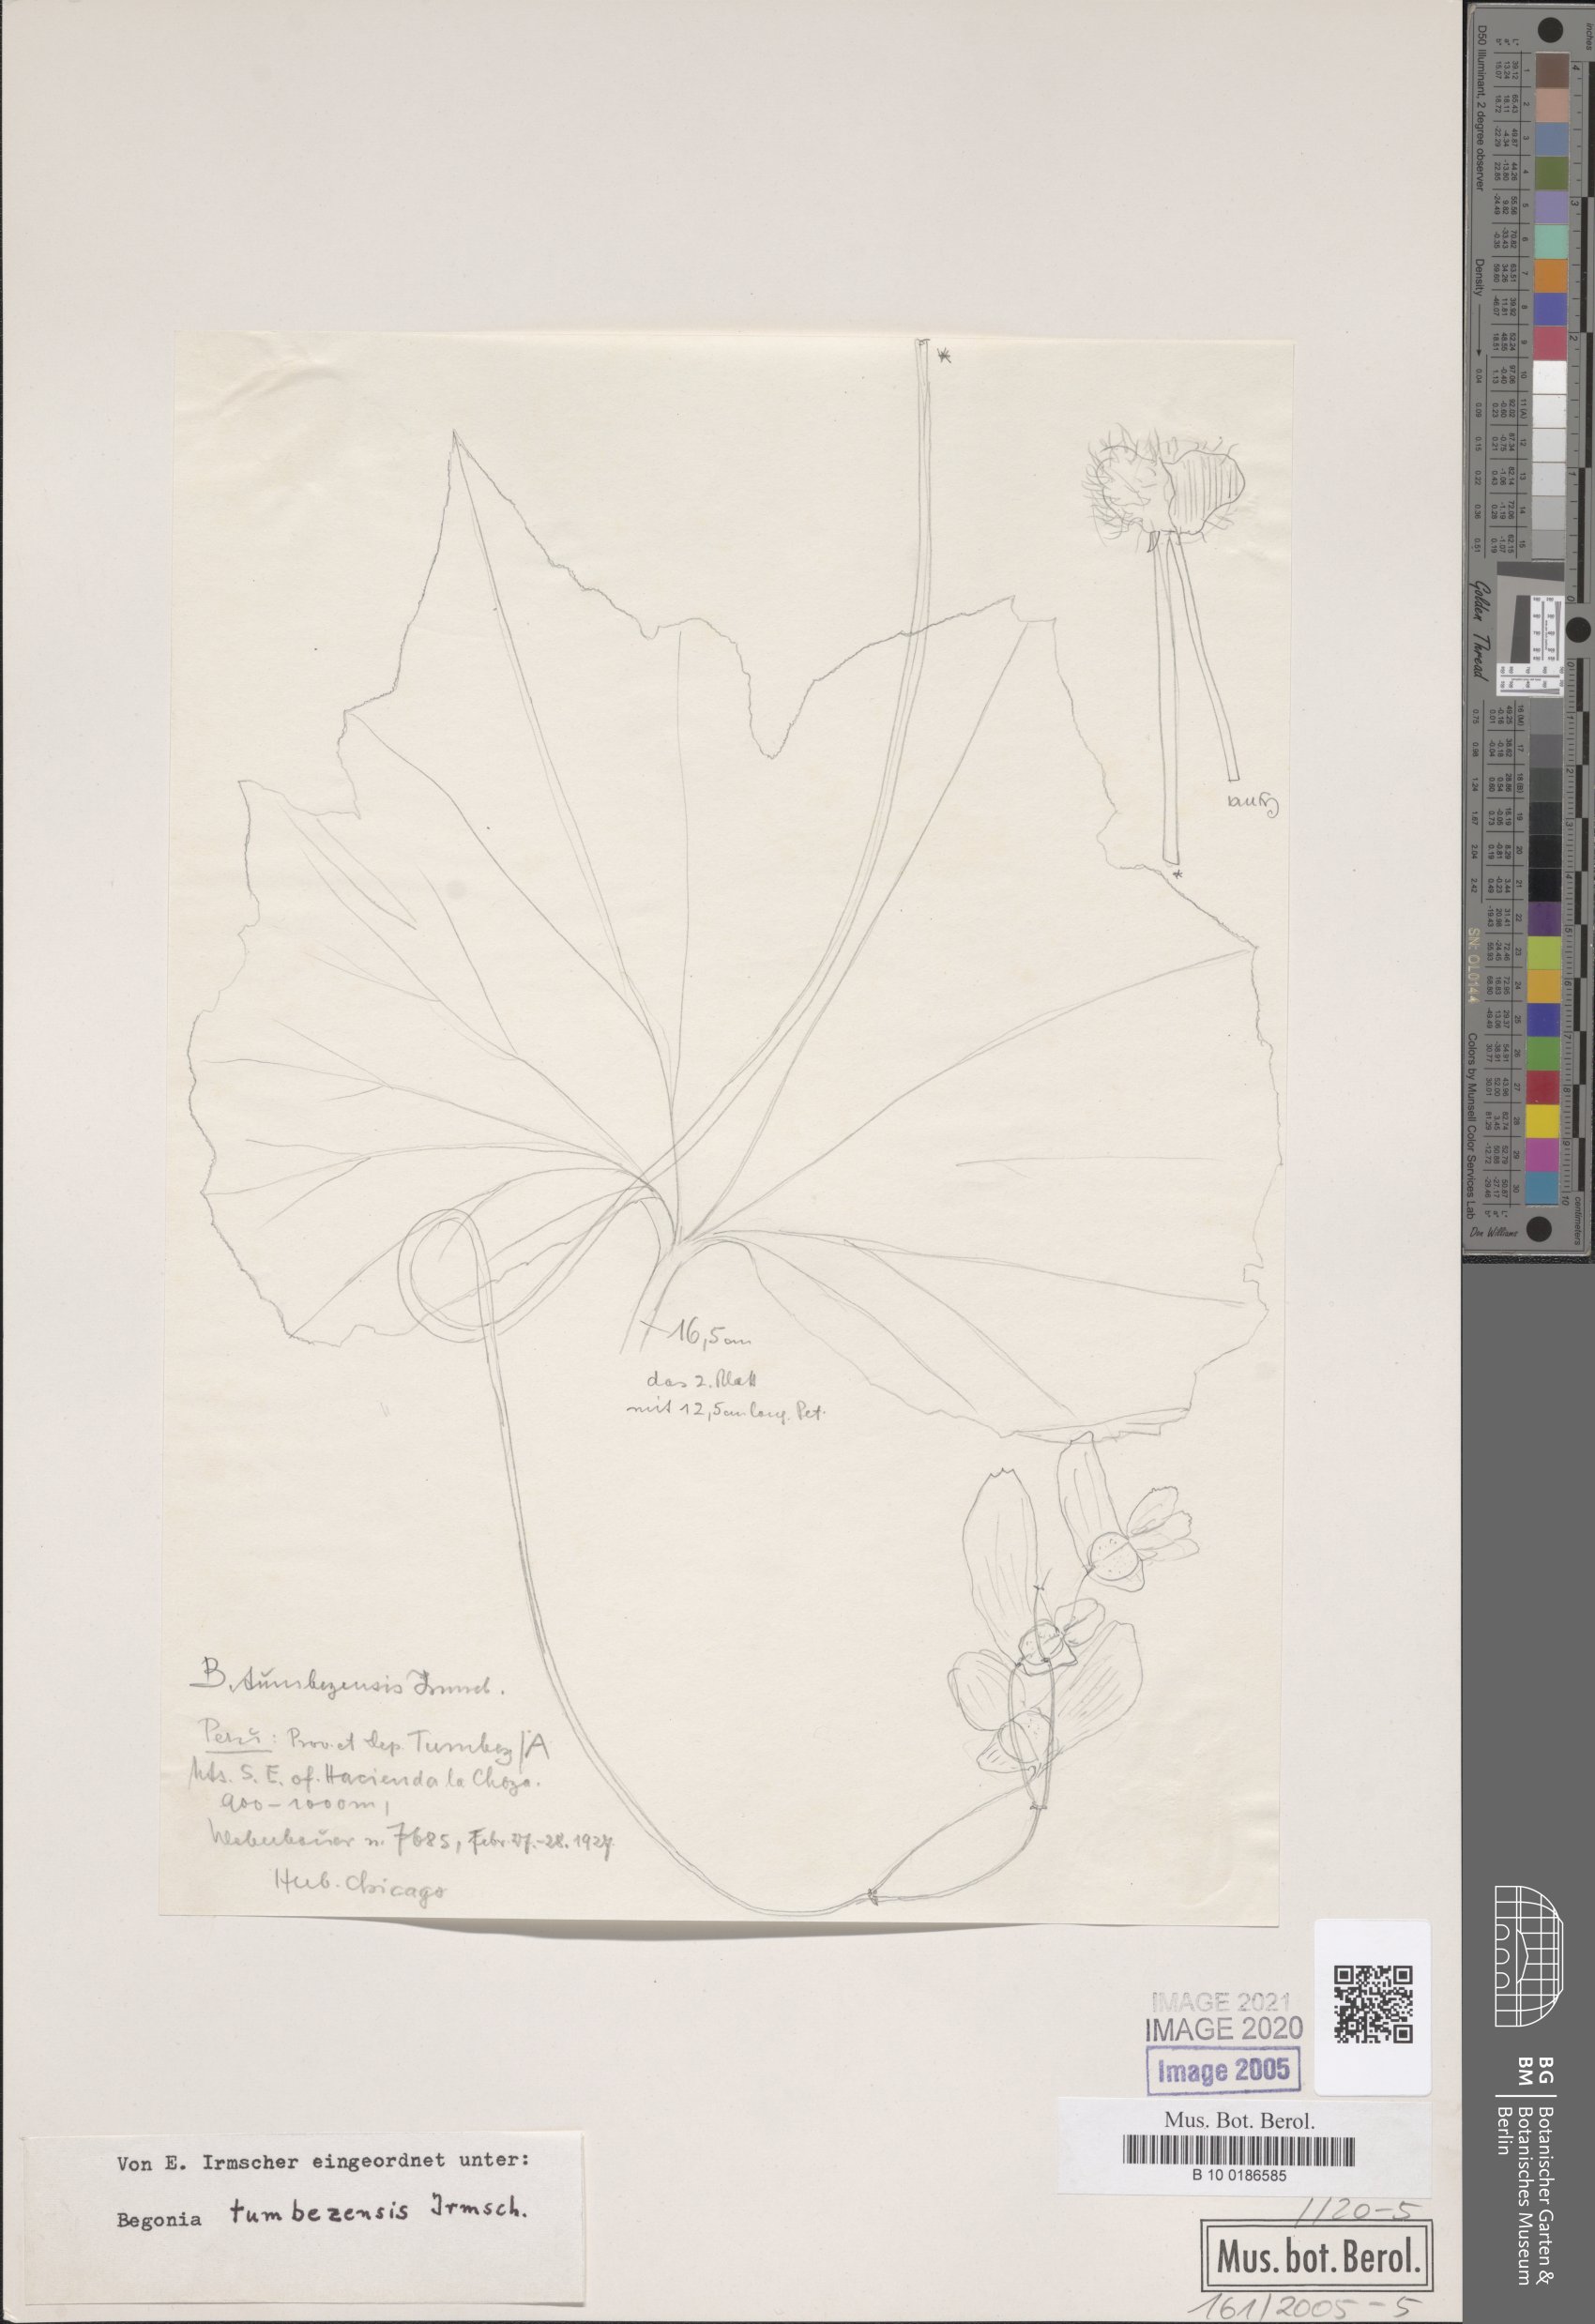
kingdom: Plantae
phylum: Tracheophyta
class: Magnoliopsida
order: Cucurbitales
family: Begoniaceae
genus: Begonia
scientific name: Begonia tumbezensis
